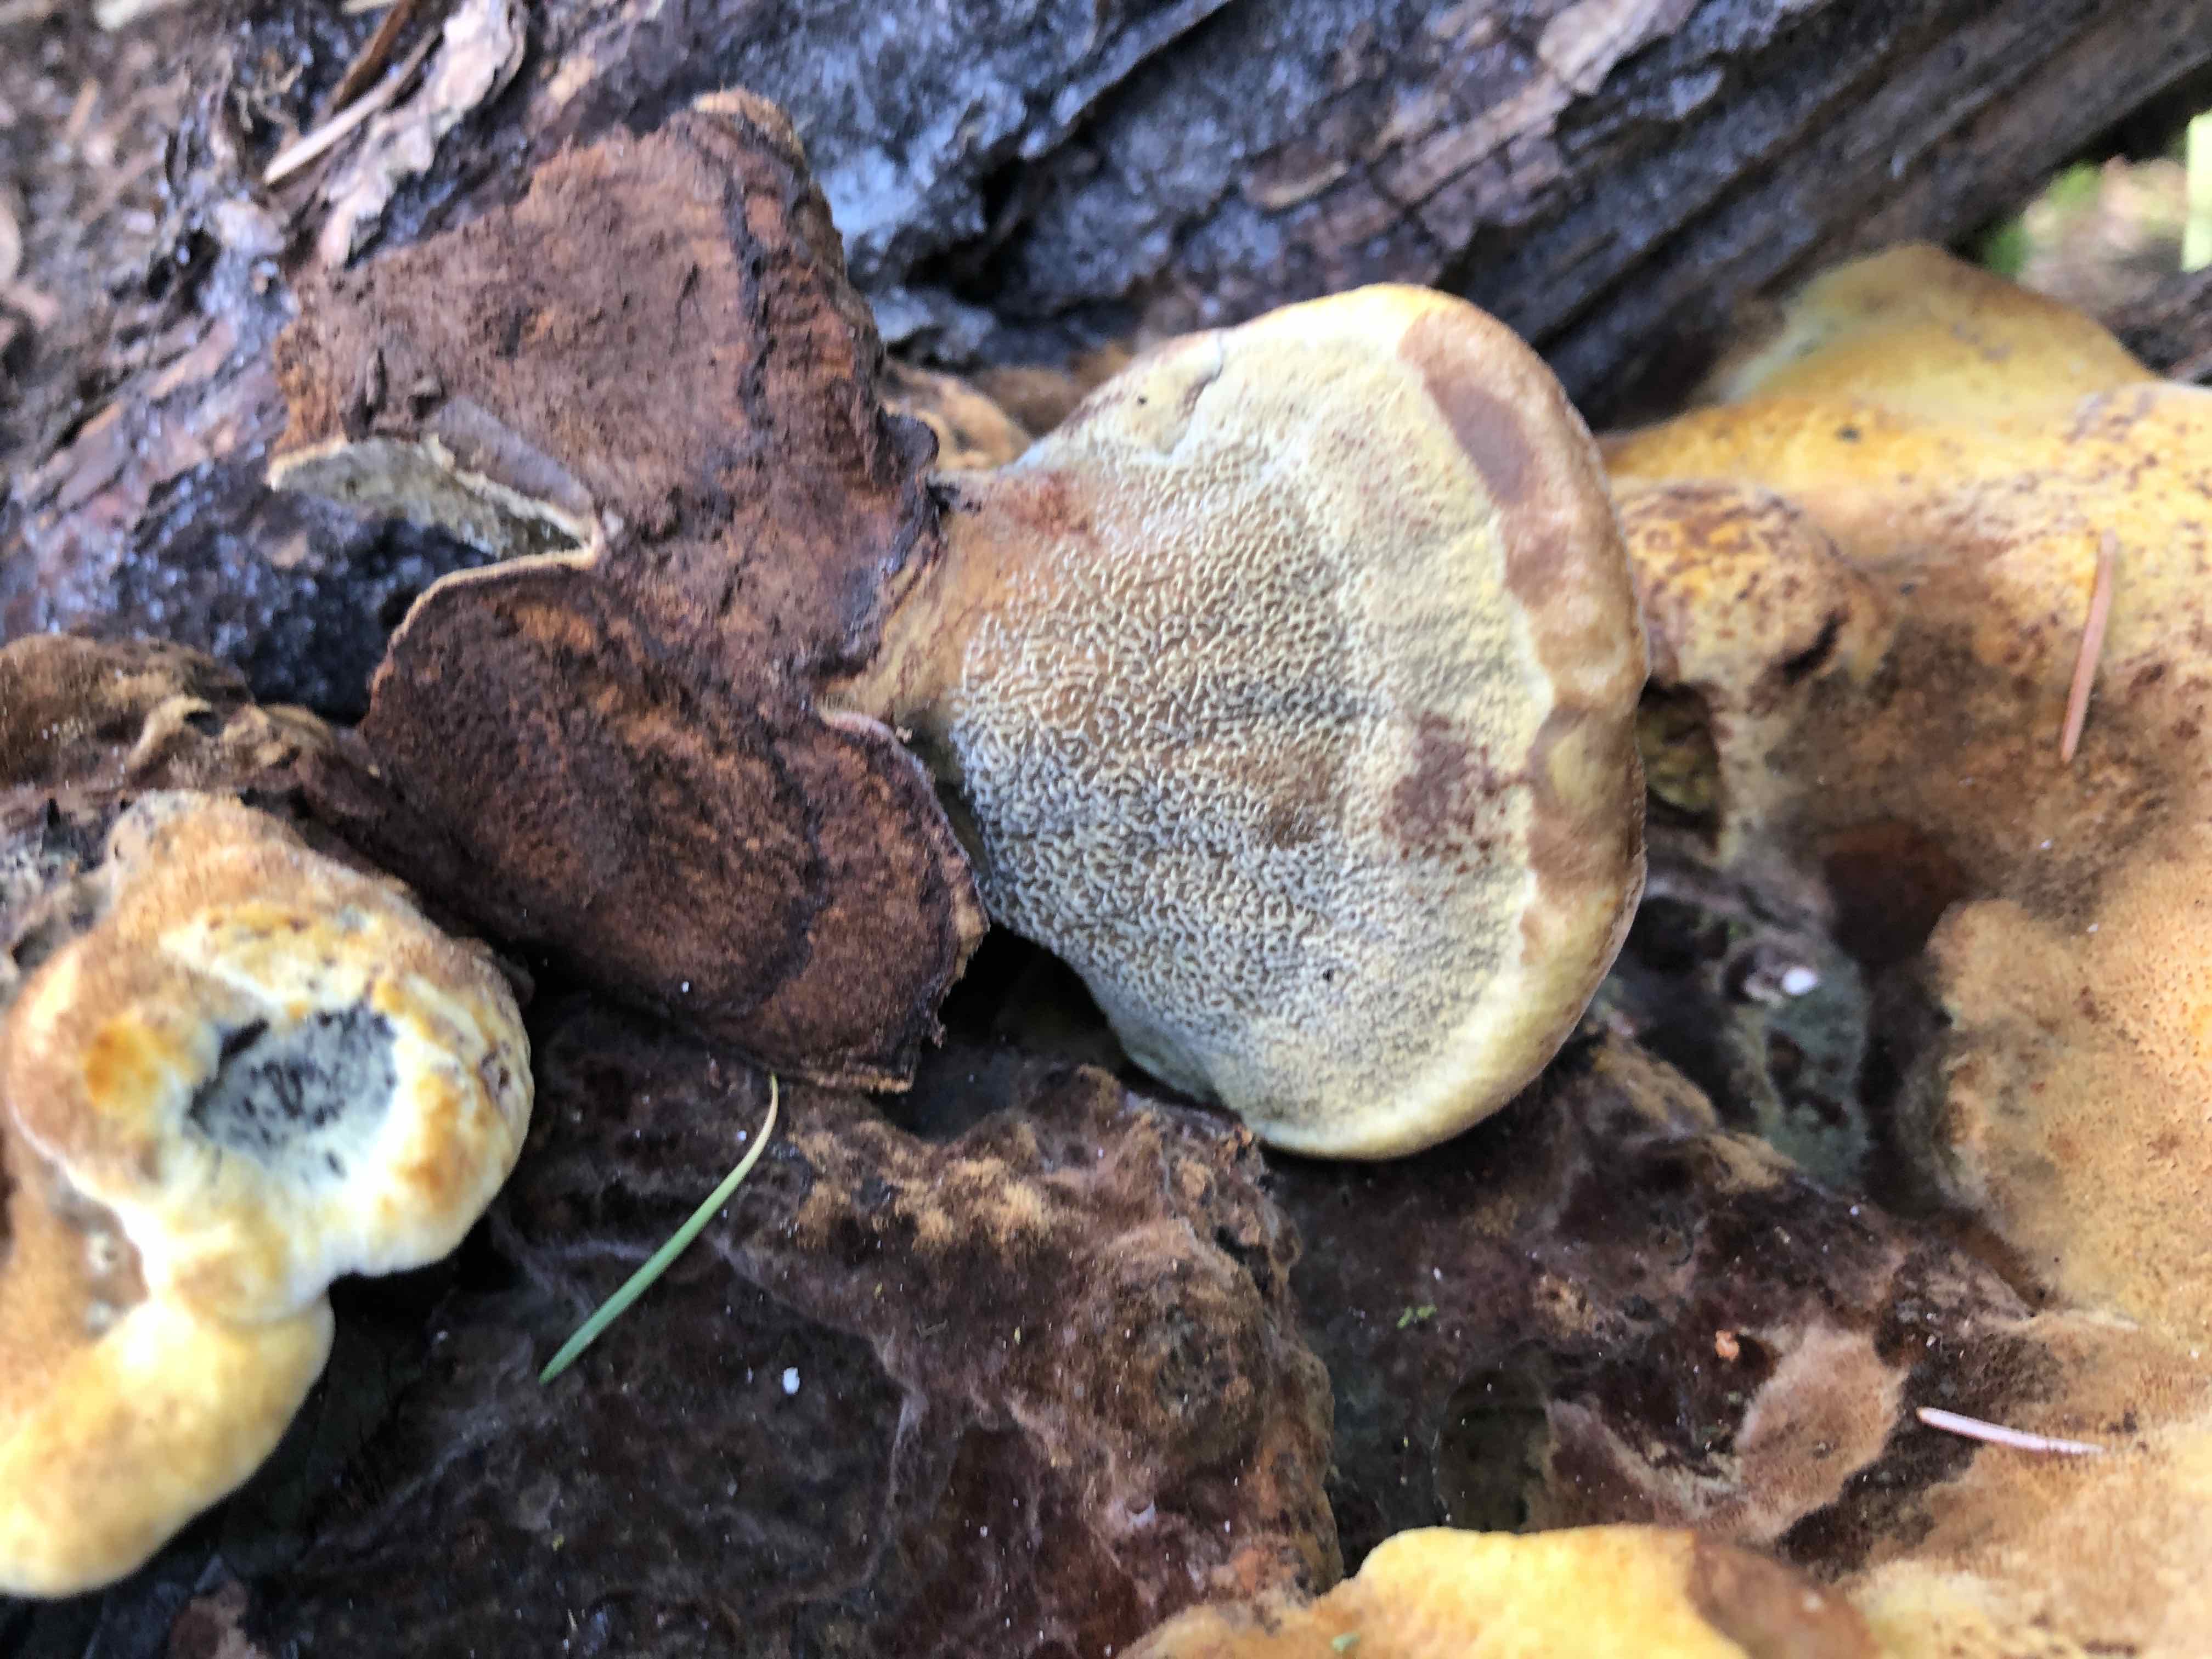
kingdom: Fungi
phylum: Basidiomycota
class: Agaricomycetes
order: Polyporales
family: Laetiporaceae
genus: Phaeolus
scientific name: Phaeolus schweinitzii
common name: brunporesvamp
